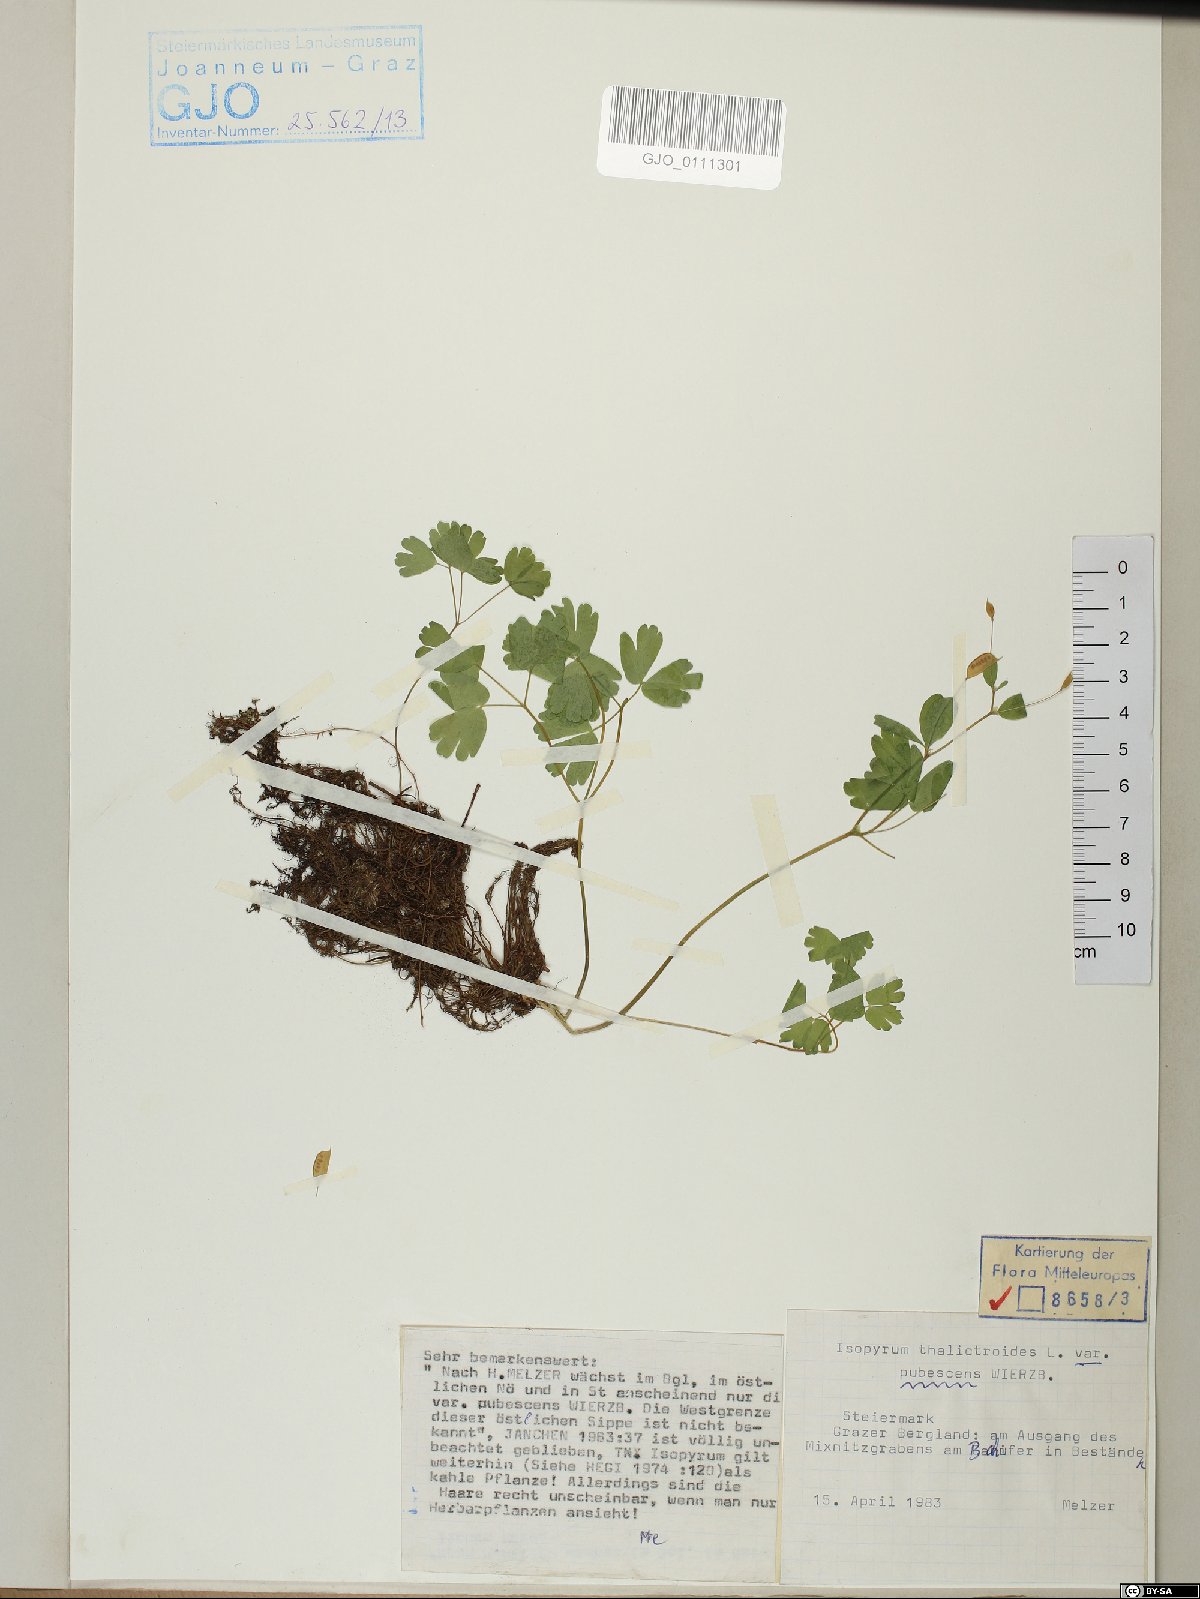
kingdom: Plantae
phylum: Tracheophyta
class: Magnoliopsida
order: Ranunculales
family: Ranunculaceae
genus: Isopyrum
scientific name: Isopyrum thalictroides
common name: Isopyrum
